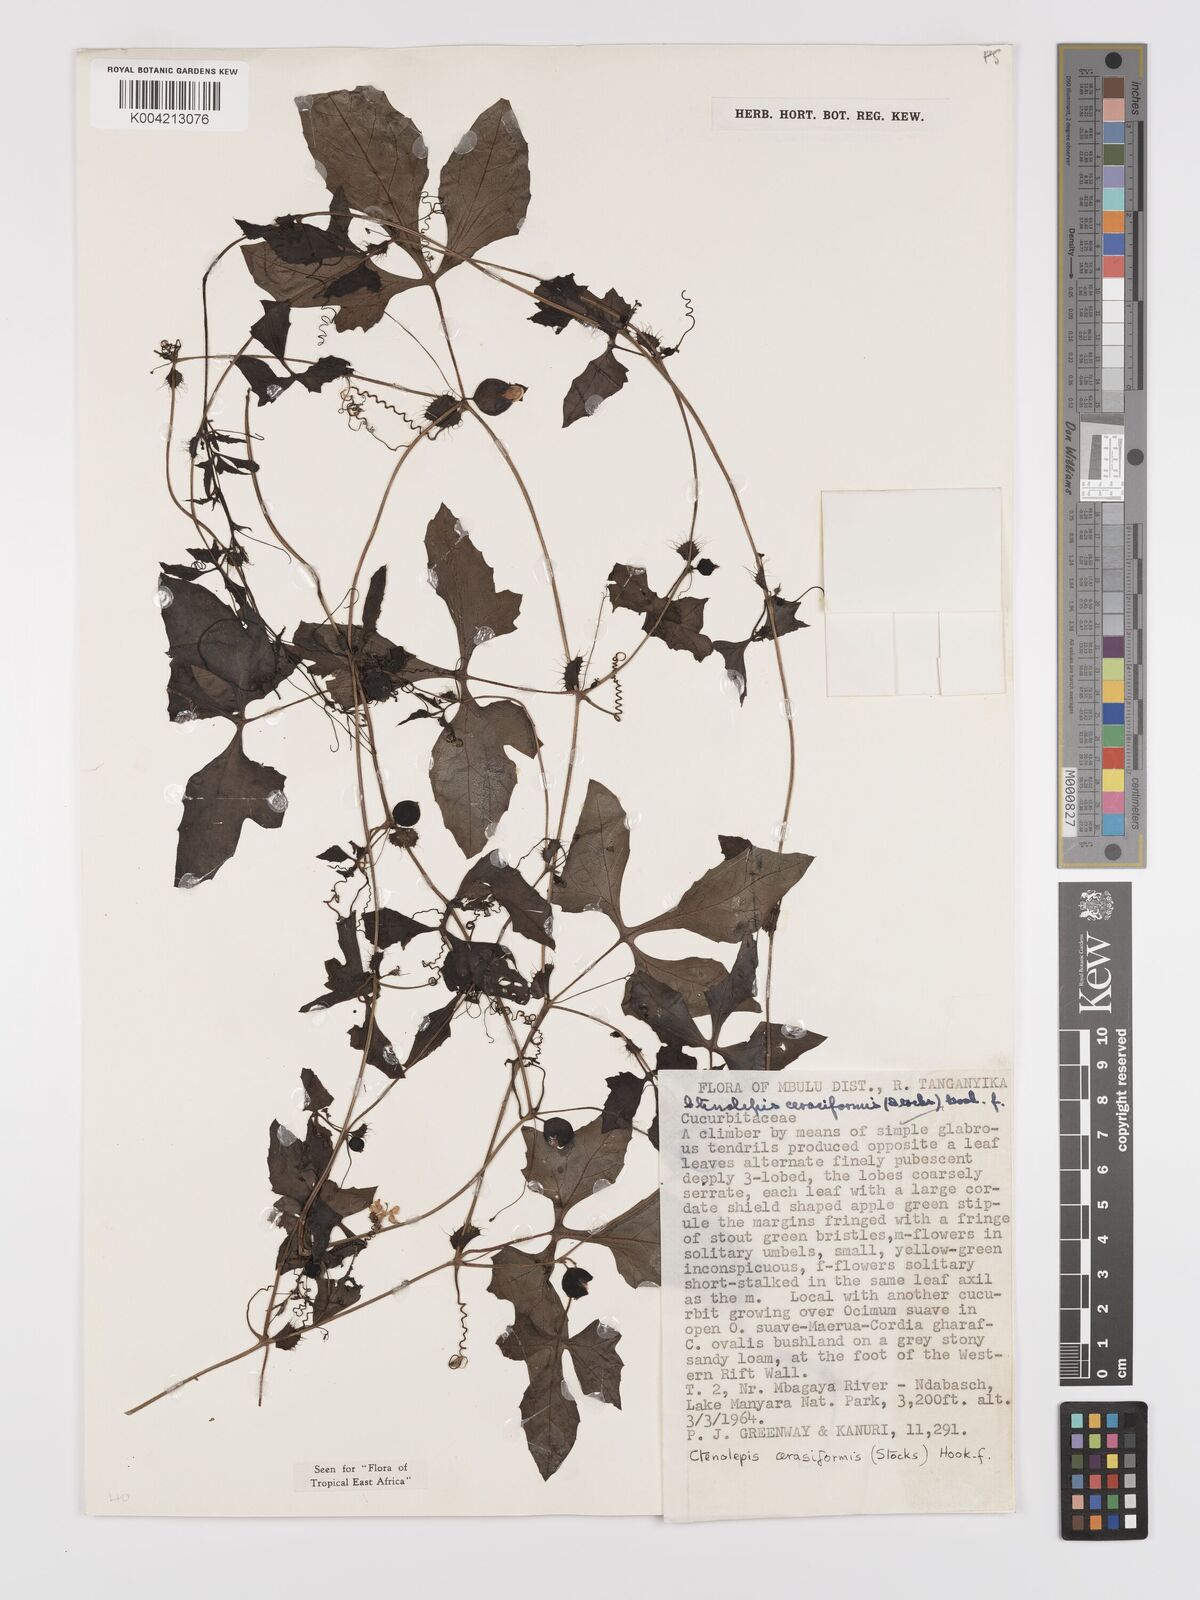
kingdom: Plantae
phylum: Tracheophyta
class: Magnoliopsida
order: Cucurbitales
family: Cucurbitaceae
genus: Blastania
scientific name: Blastania cerasiformis
